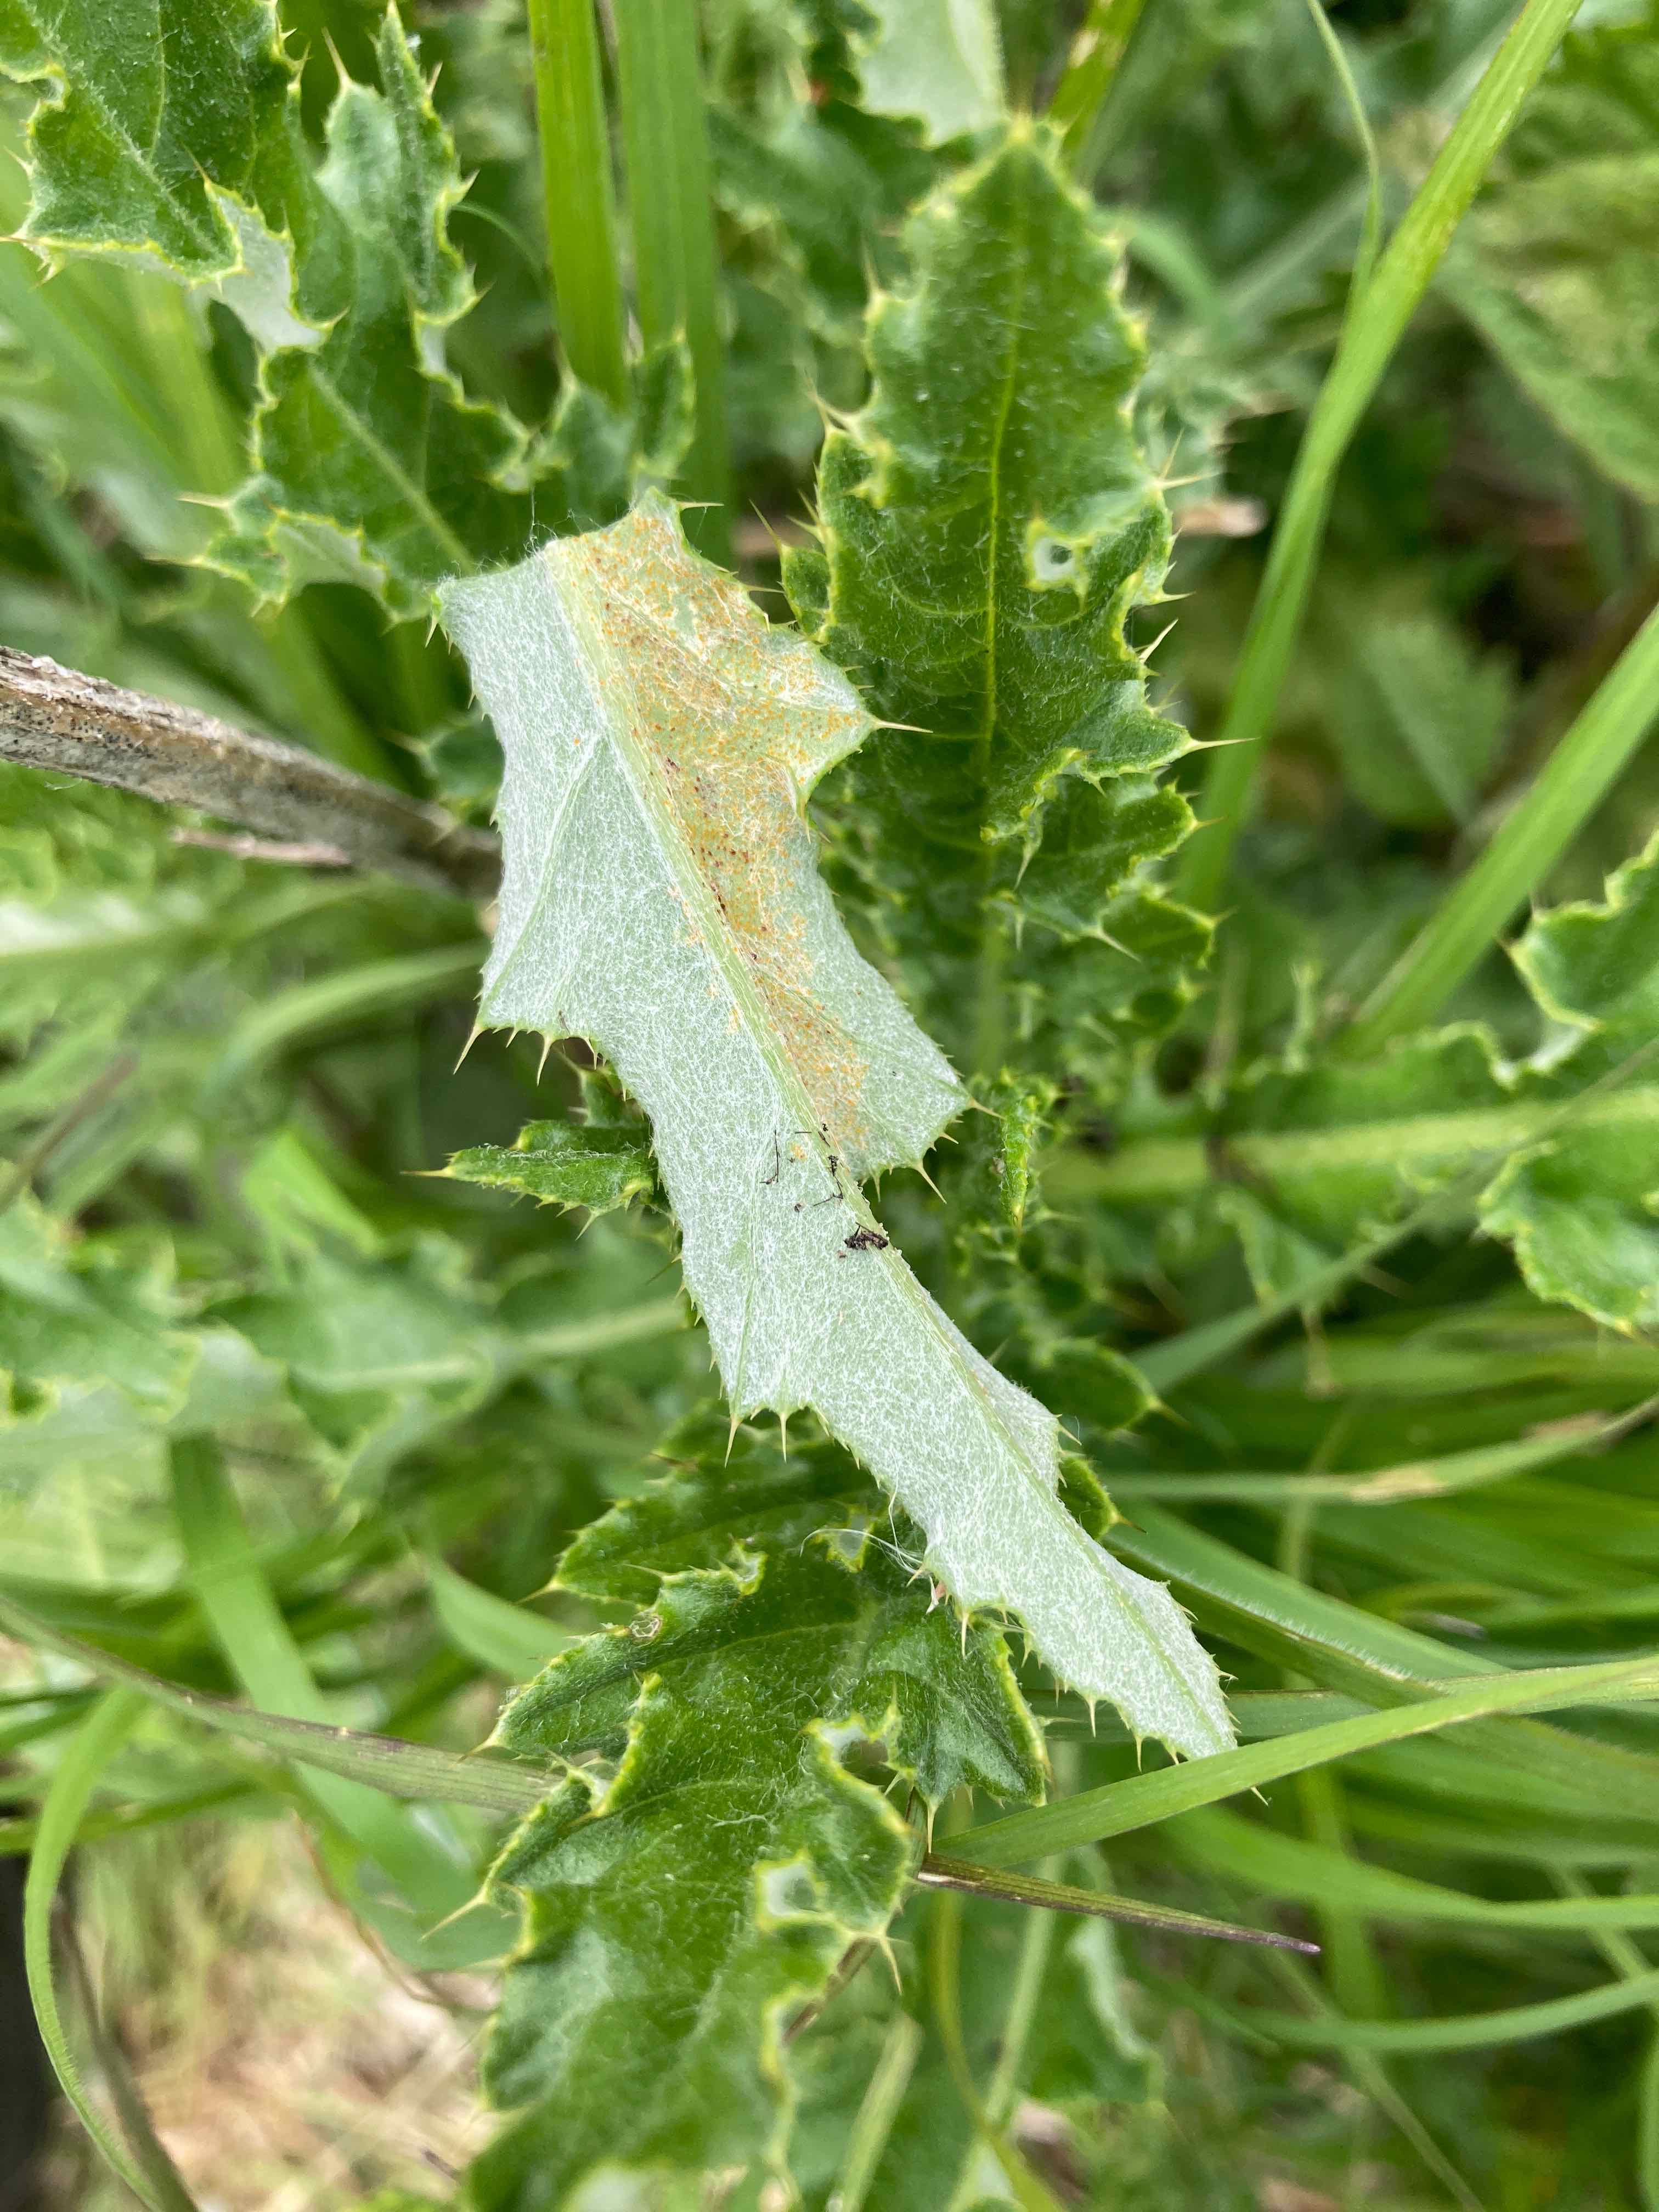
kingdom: Fungi
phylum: Basidiomycota
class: Pucciniomycetes
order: Pucciniales
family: Pucciniaceae
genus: Puccinia
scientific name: Puccinia suaveolens
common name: tidsel-tvecellerust
